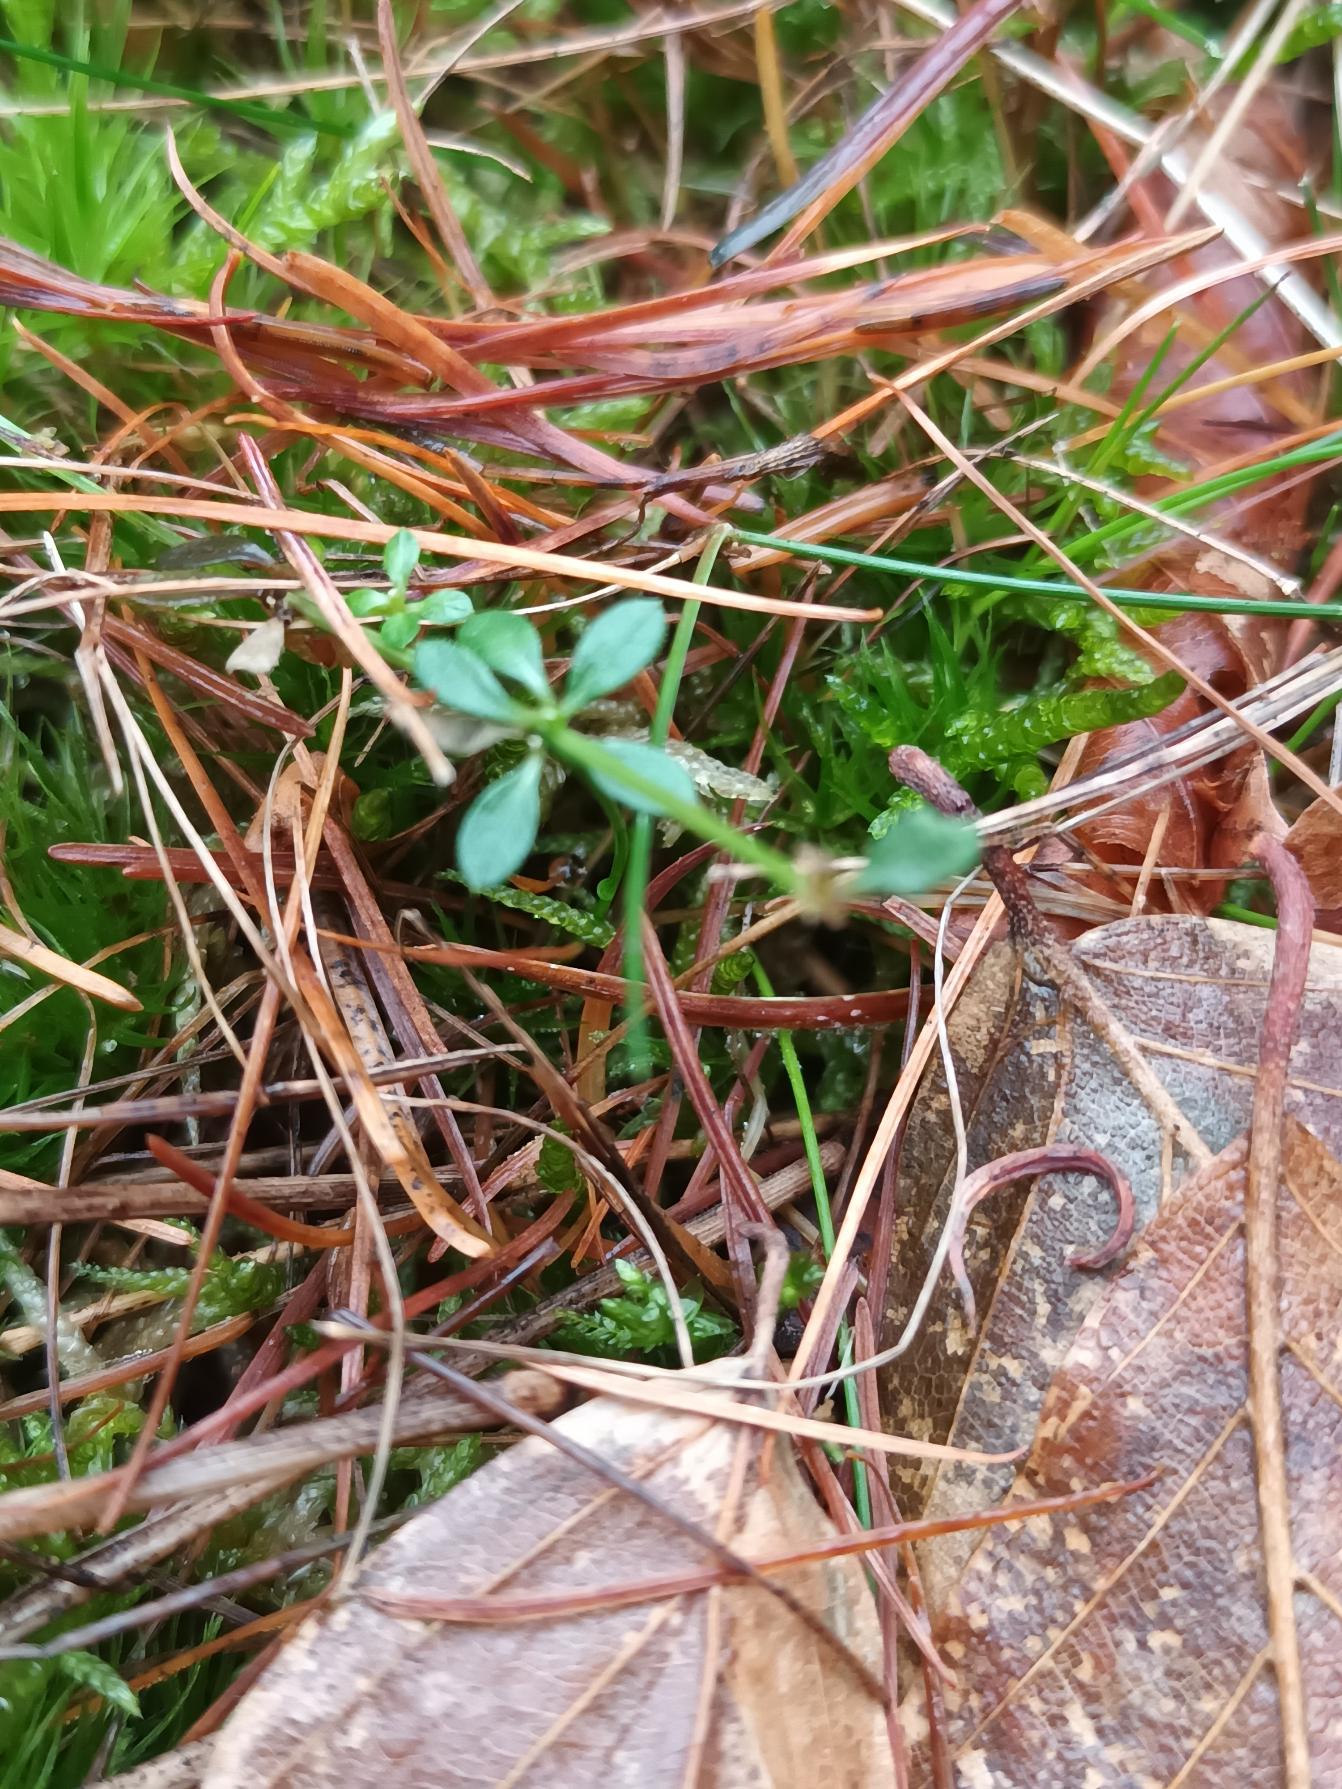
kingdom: Plantae
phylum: Tracheophyta
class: Magnoliopsida
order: Gentianales
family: Rubiaceae
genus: Galium
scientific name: Galium saxatile
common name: Lyng-snerre
